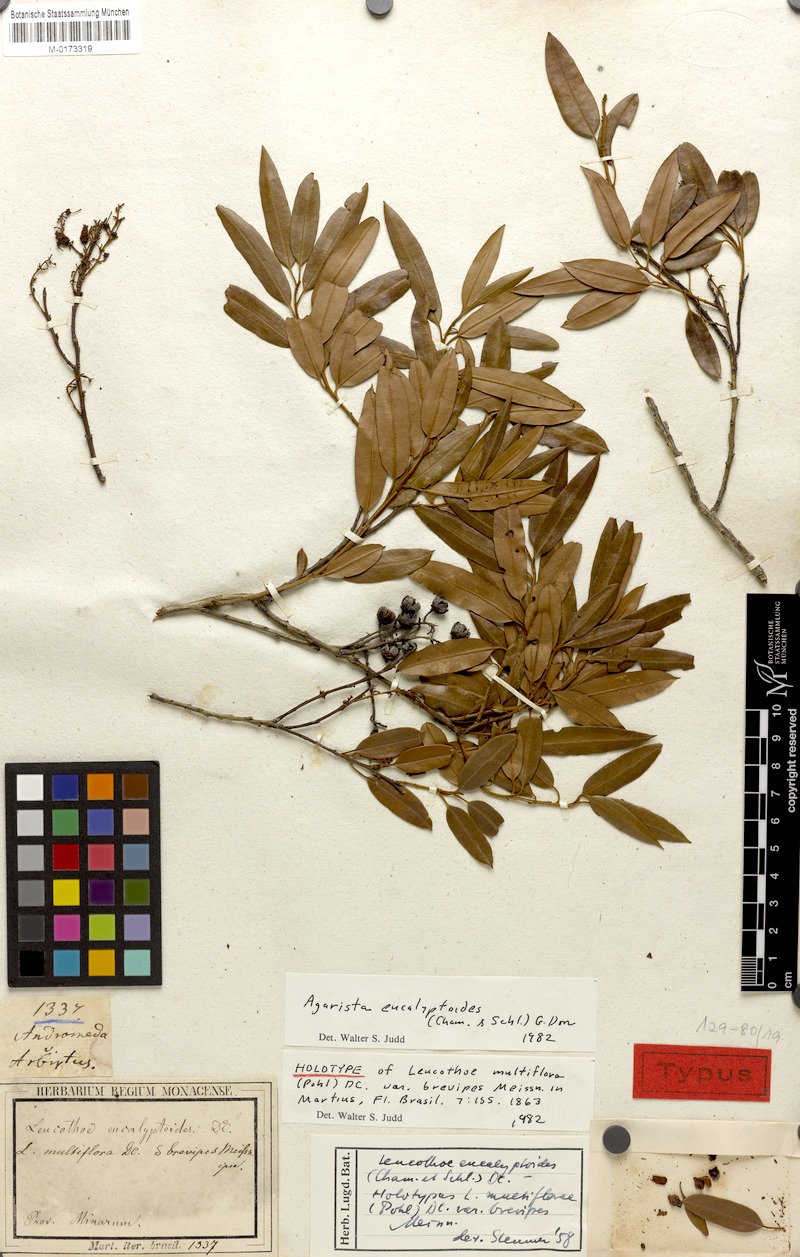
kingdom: Plantae
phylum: Tracheophyta
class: Magnoliopsida
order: Ericales
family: Ericaceae
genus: Agarista
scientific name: Agarista eucalyptoides
